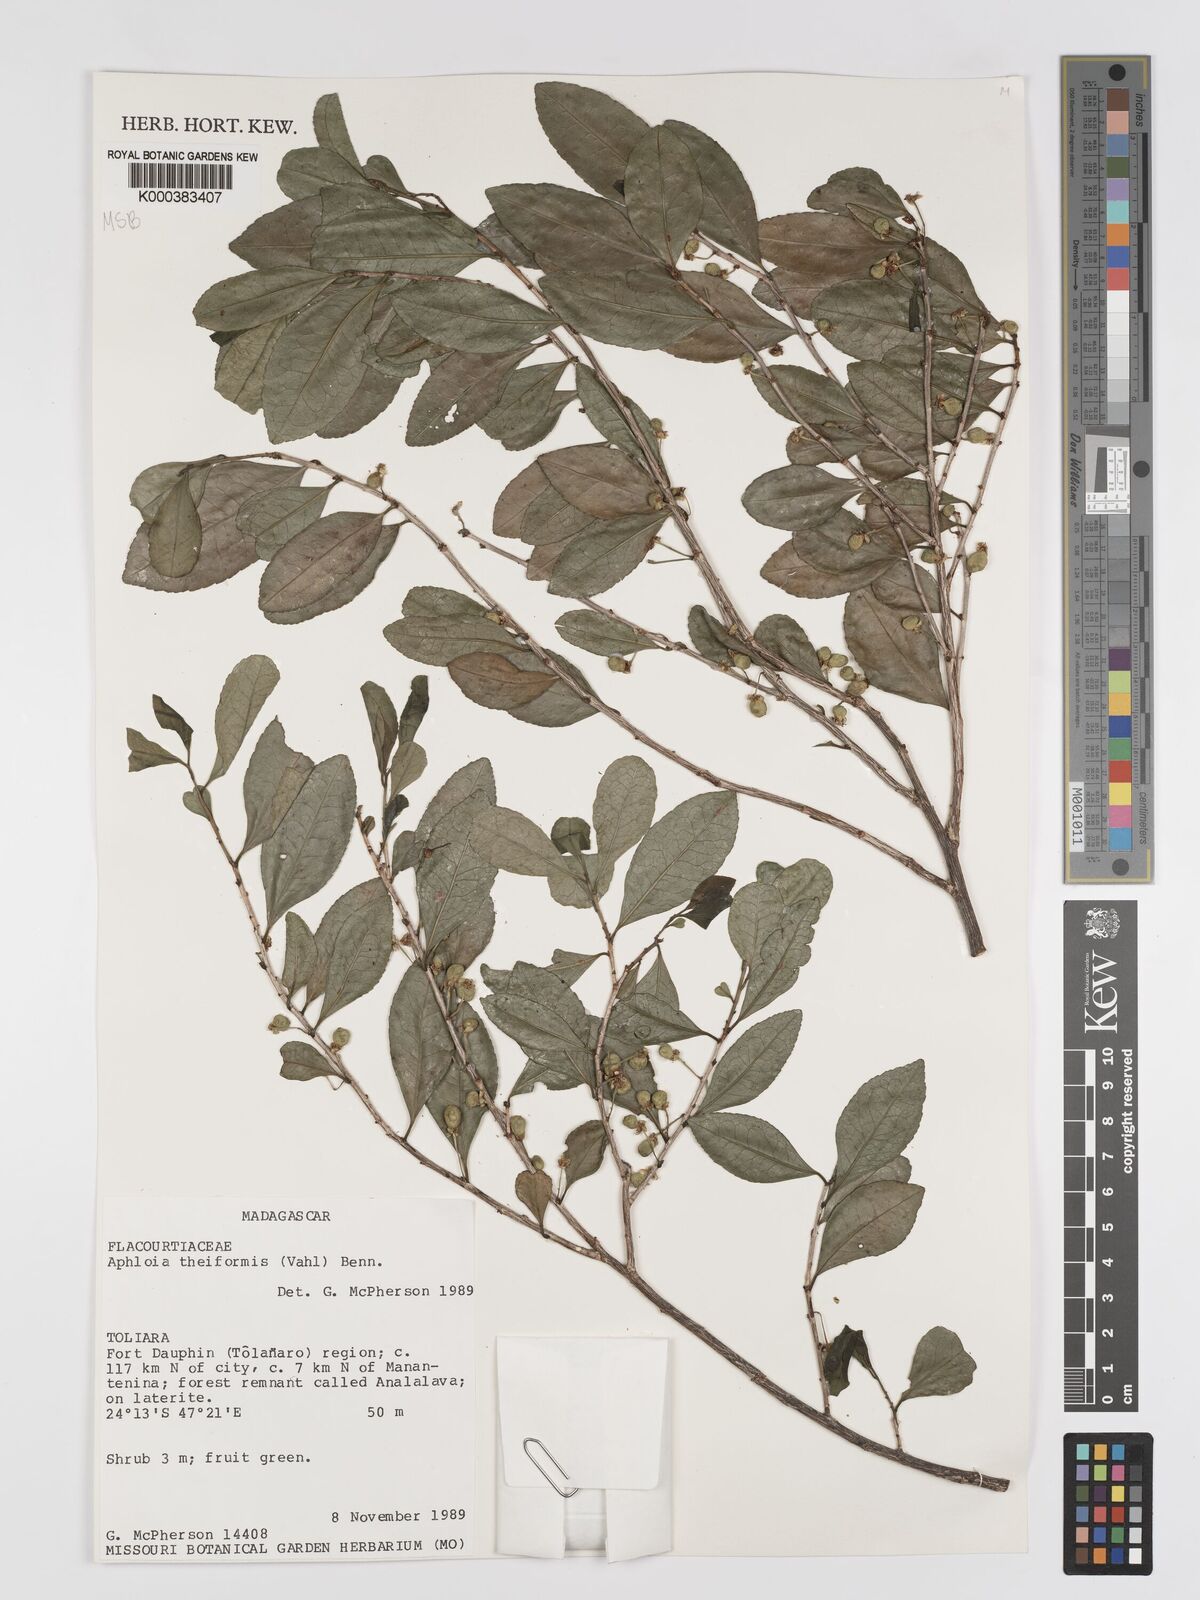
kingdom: Plantae
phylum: Tracheophyta
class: Magnoliopsida
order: Crossosomatales
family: Aphloiaceae
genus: Aphloia
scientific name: Aphloia theiformis
